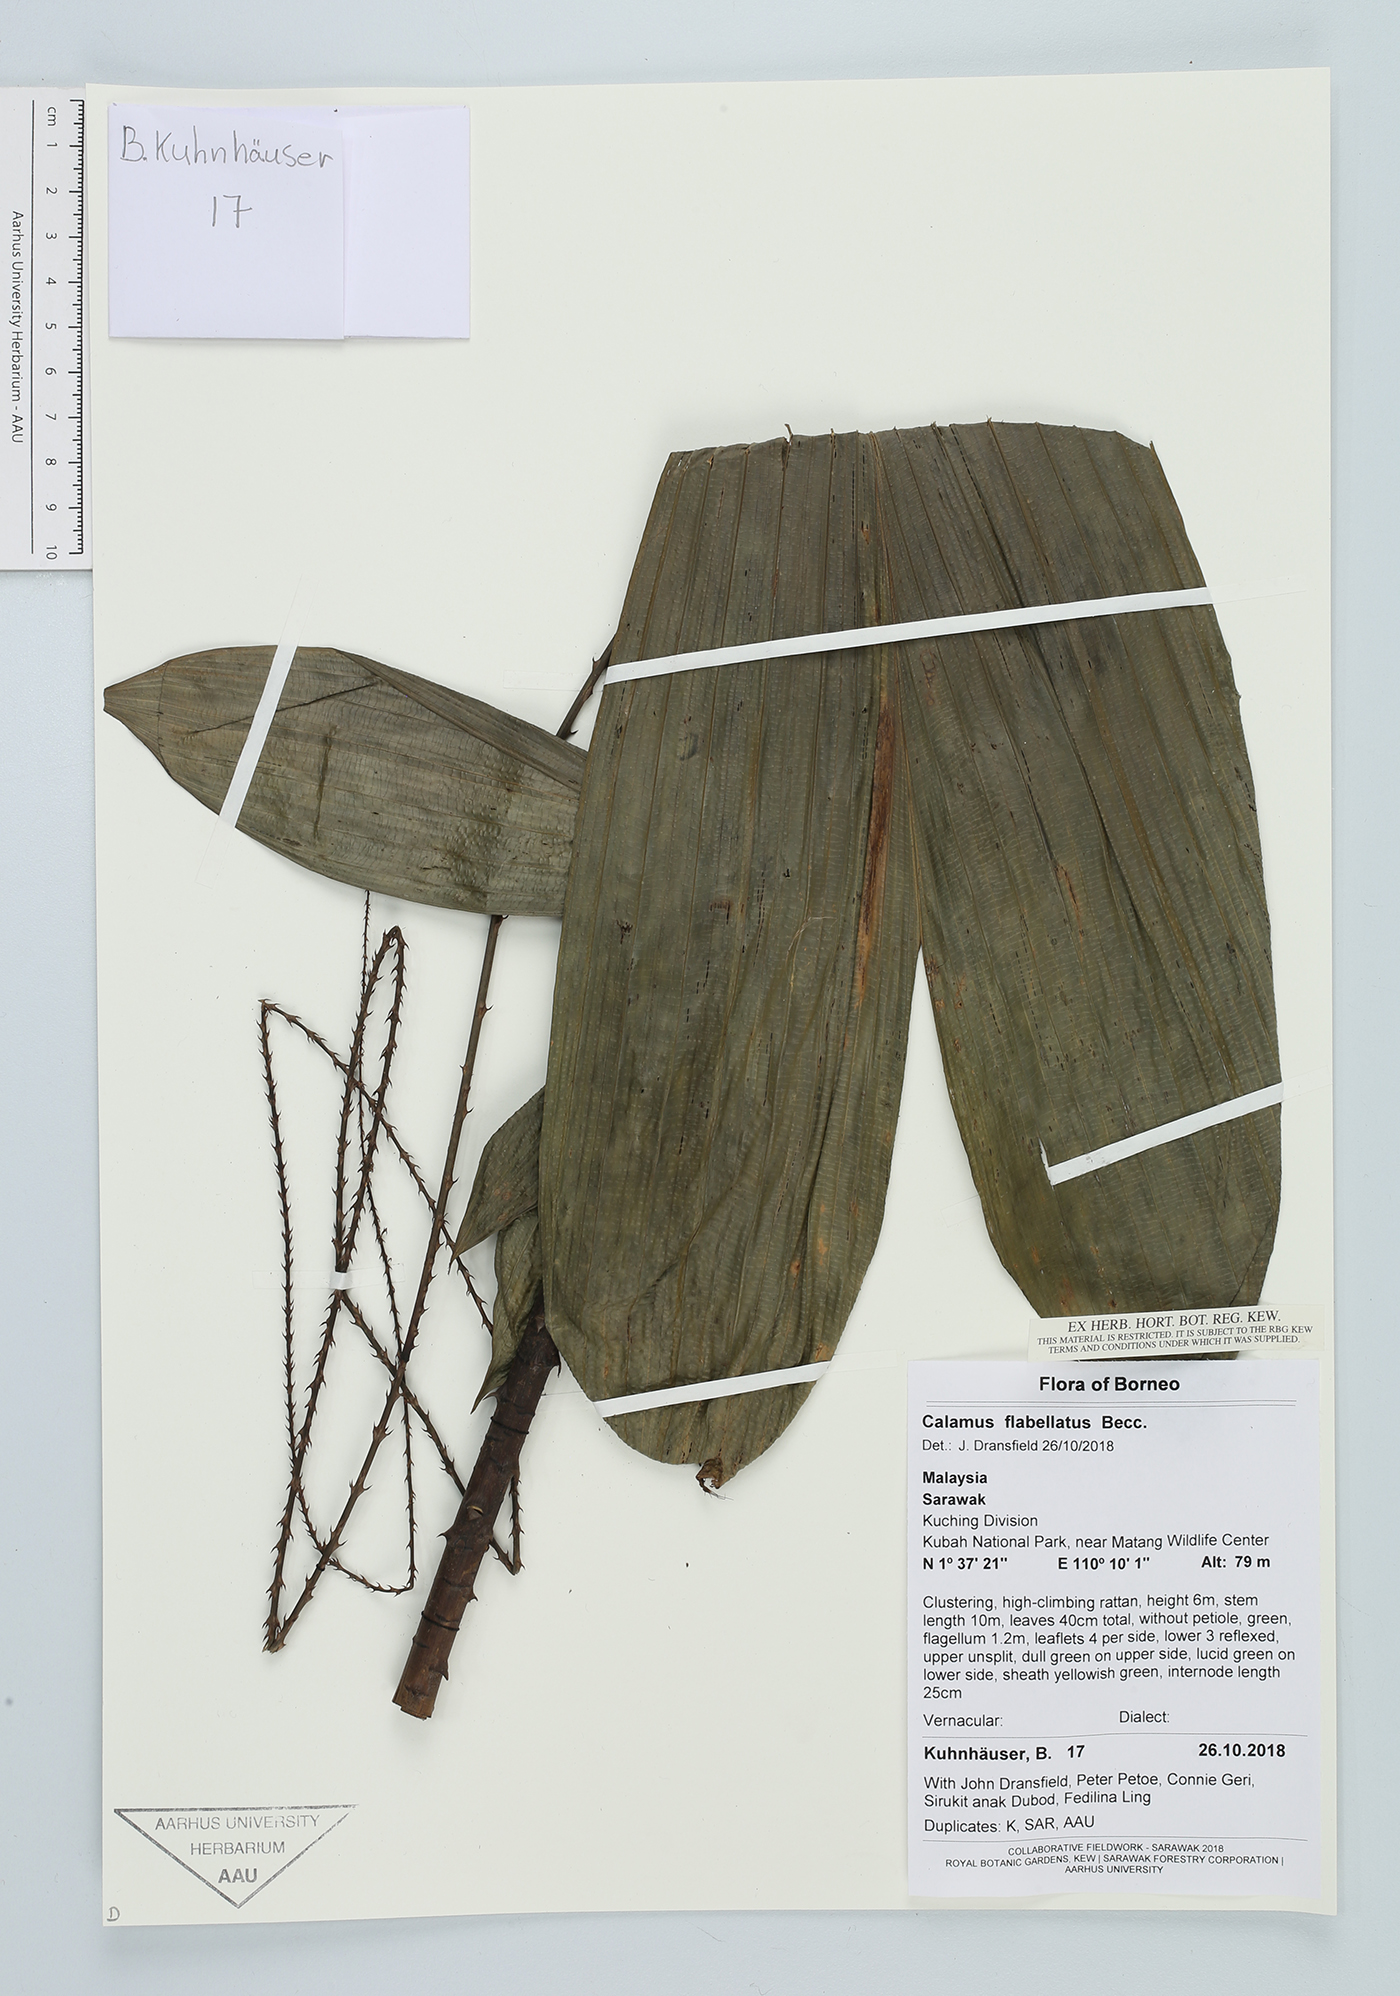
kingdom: Plantae
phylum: Tracheophyta
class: Liliopsida
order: Arecales
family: Arecaceae
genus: Calamus
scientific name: Calamus flabellatus
